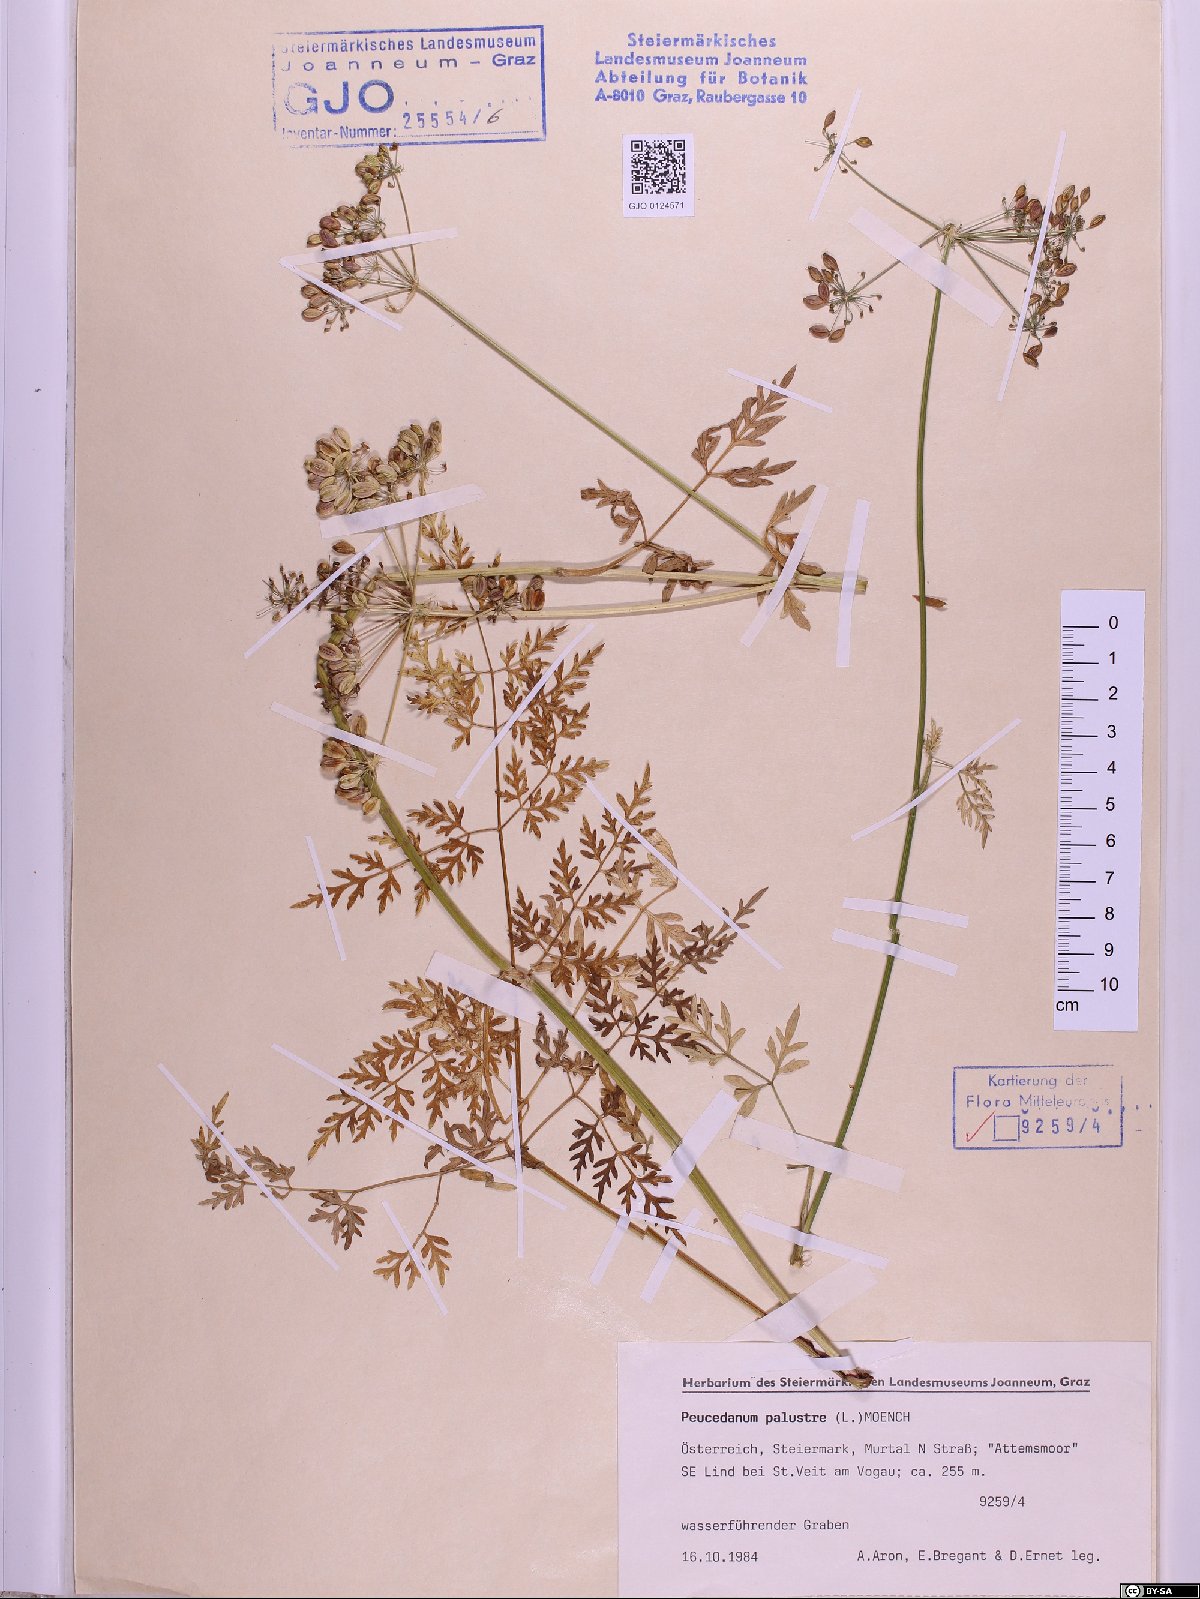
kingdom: Plantae
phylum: Tracheophyta
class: Magnoliopsida
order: Apiales
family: Apiaceae
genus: Thysselinum
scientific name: Thysselinum palustre
